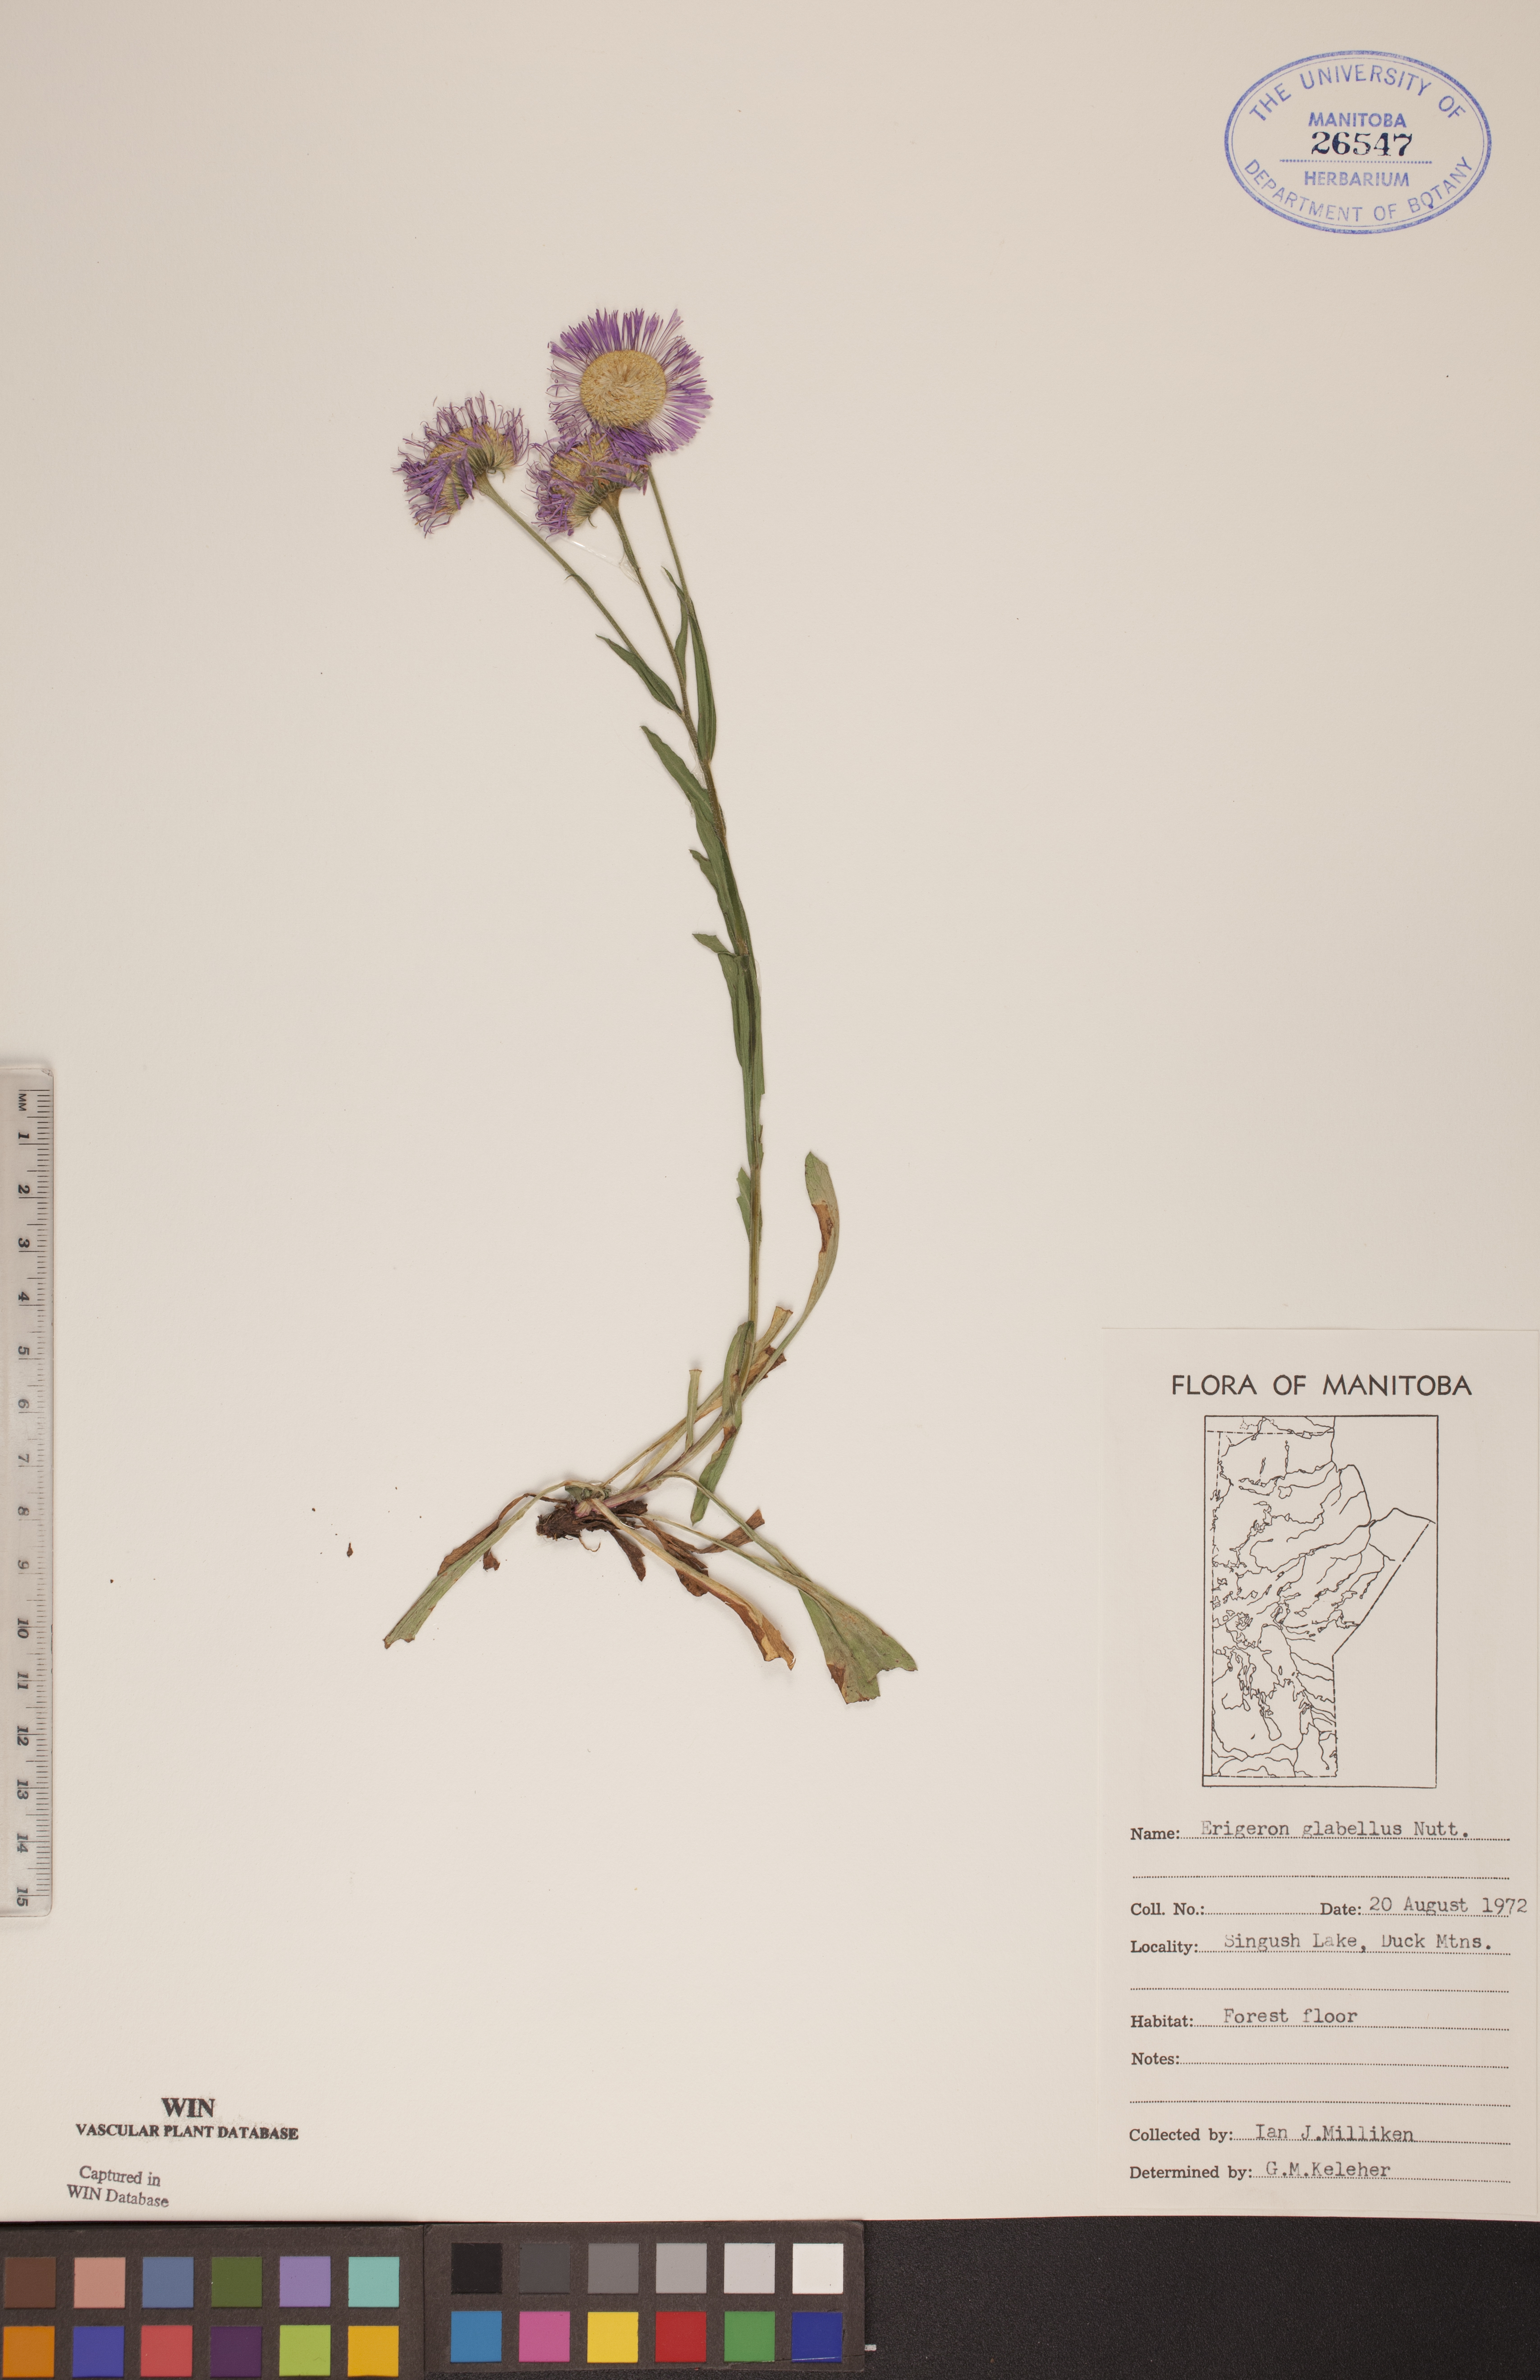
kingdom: Plantae
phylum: Tracheophyta
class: Magnoliopsida
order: Asterales
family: Asteraceae
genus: Erigeron
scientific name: Erigeron glabellus
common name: Smooth fleabane
